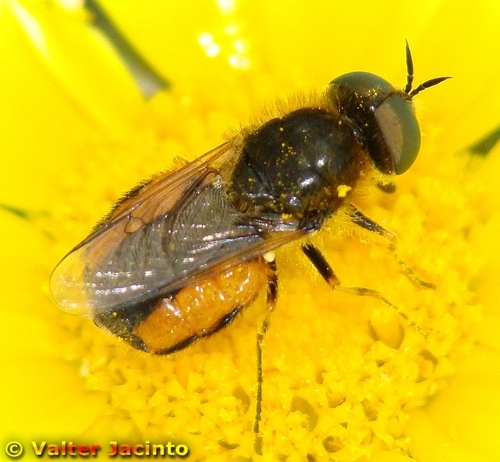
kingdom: Animalia
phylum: Arthropoda
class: Insecta
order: Diptera
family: Stratiomyidae
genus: Odontomyia
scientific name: Odontomyia limbata
